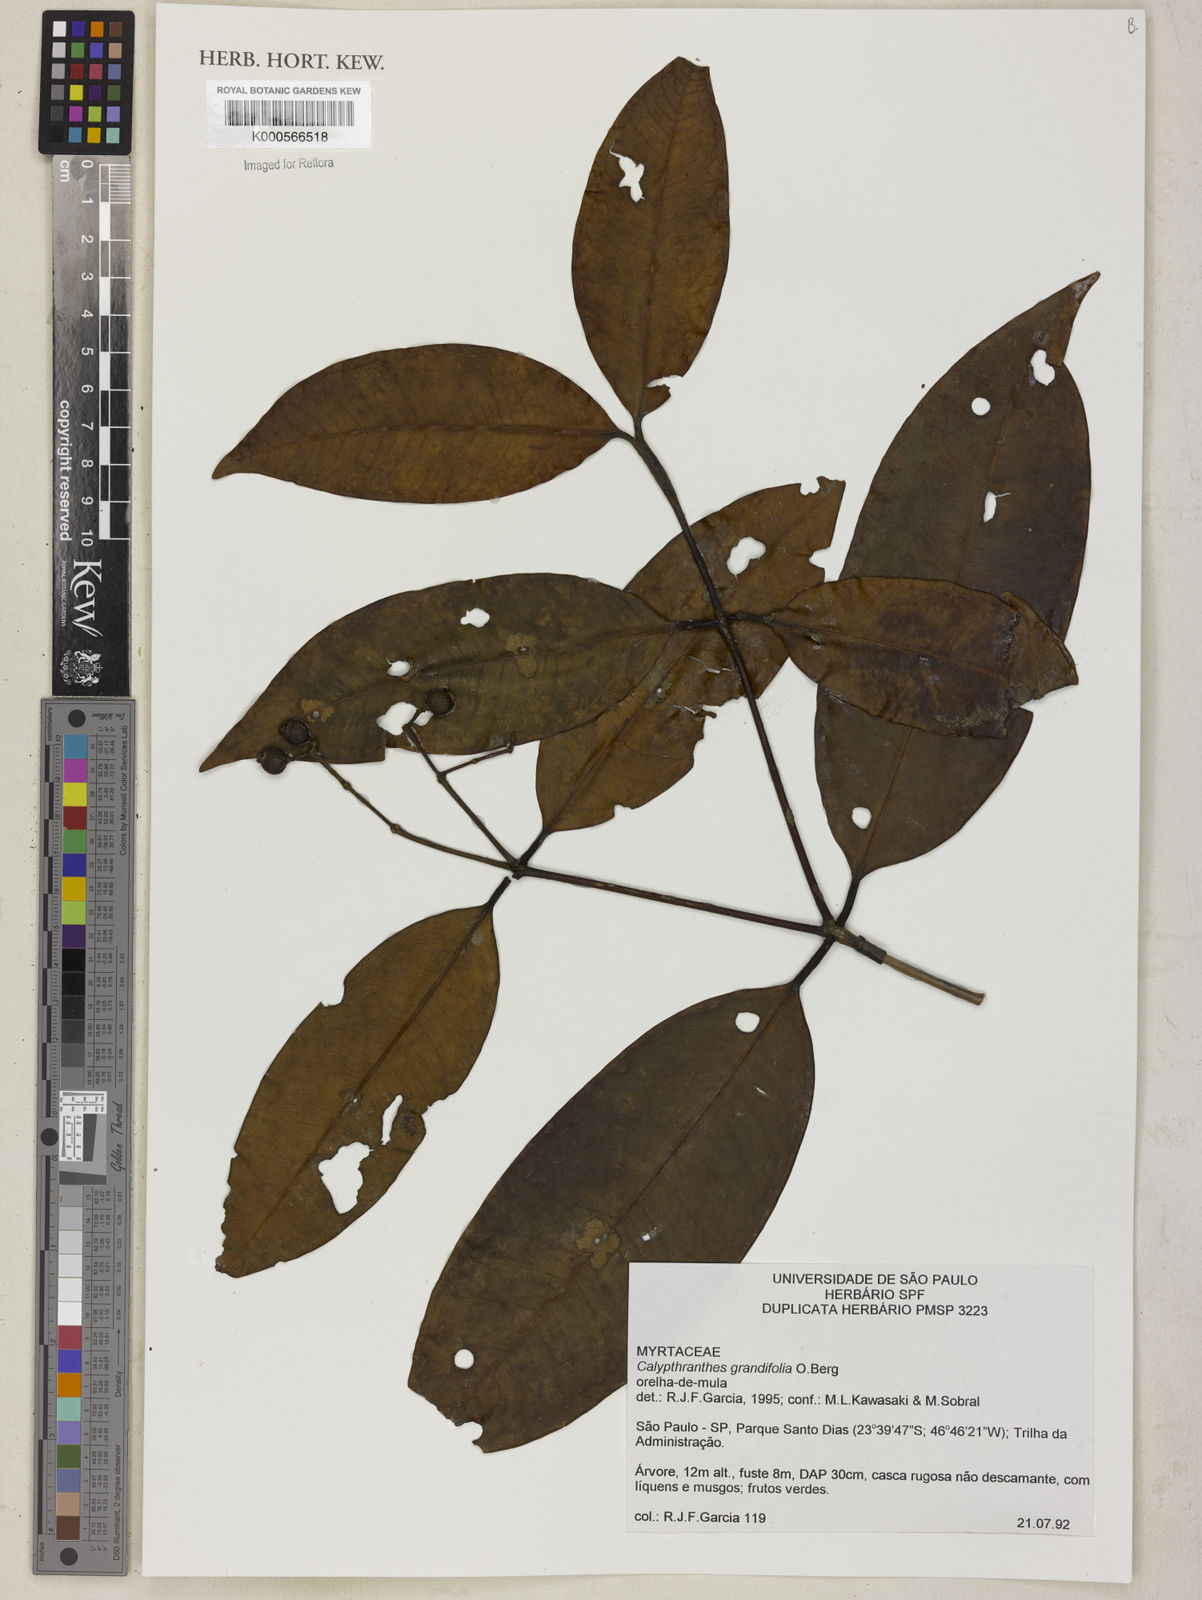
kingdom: Plantae
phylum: Tracheophyta
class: Magnoliopsida
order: Myrtales
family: Myrtaceae
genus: Calyptranthes
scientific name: Calyptranthes grandifolia
